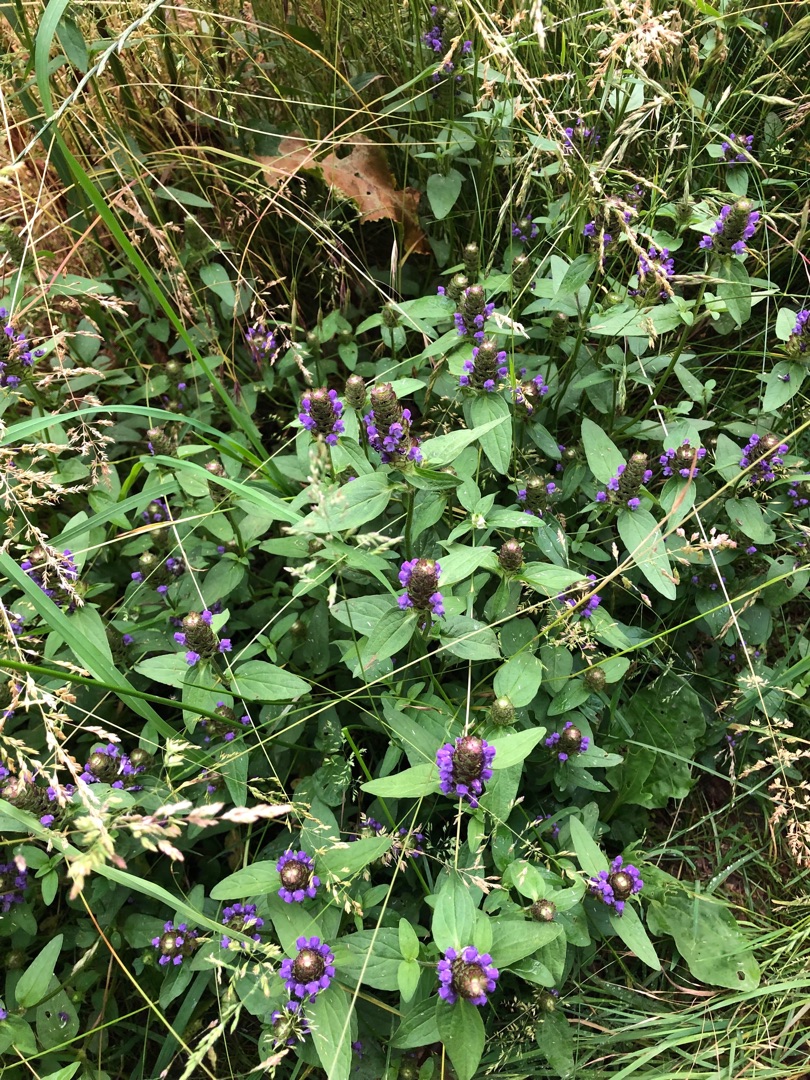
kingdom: Plantae
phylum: Tracheophyta
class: Magnoliopsida
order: Lamiales
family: Lamiaceae
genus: Prunella
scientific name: Prunella vulgaris
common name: Almindelig brunelle
